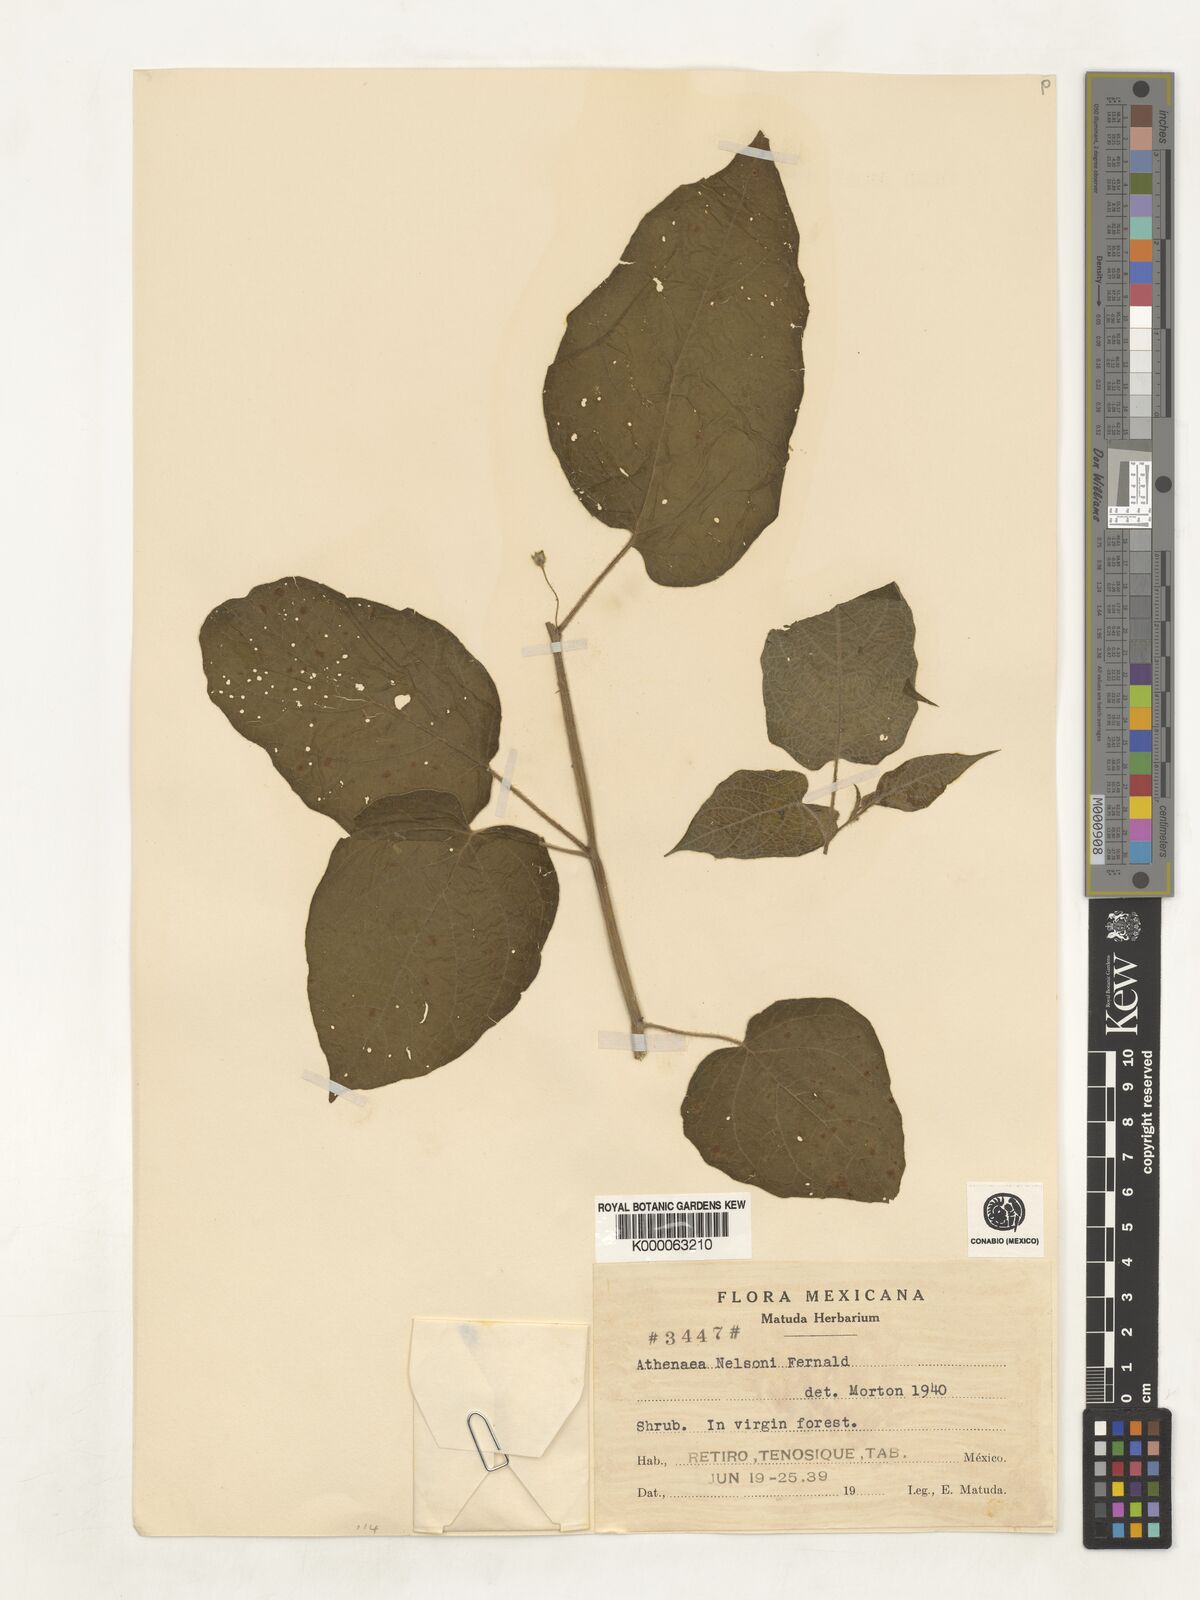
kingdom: Plantae
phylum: Tracheophyta
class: Magnoliopsida
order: Solanales
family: Solanaceae
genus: Brachistus
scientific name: Brachistus nelsonii
